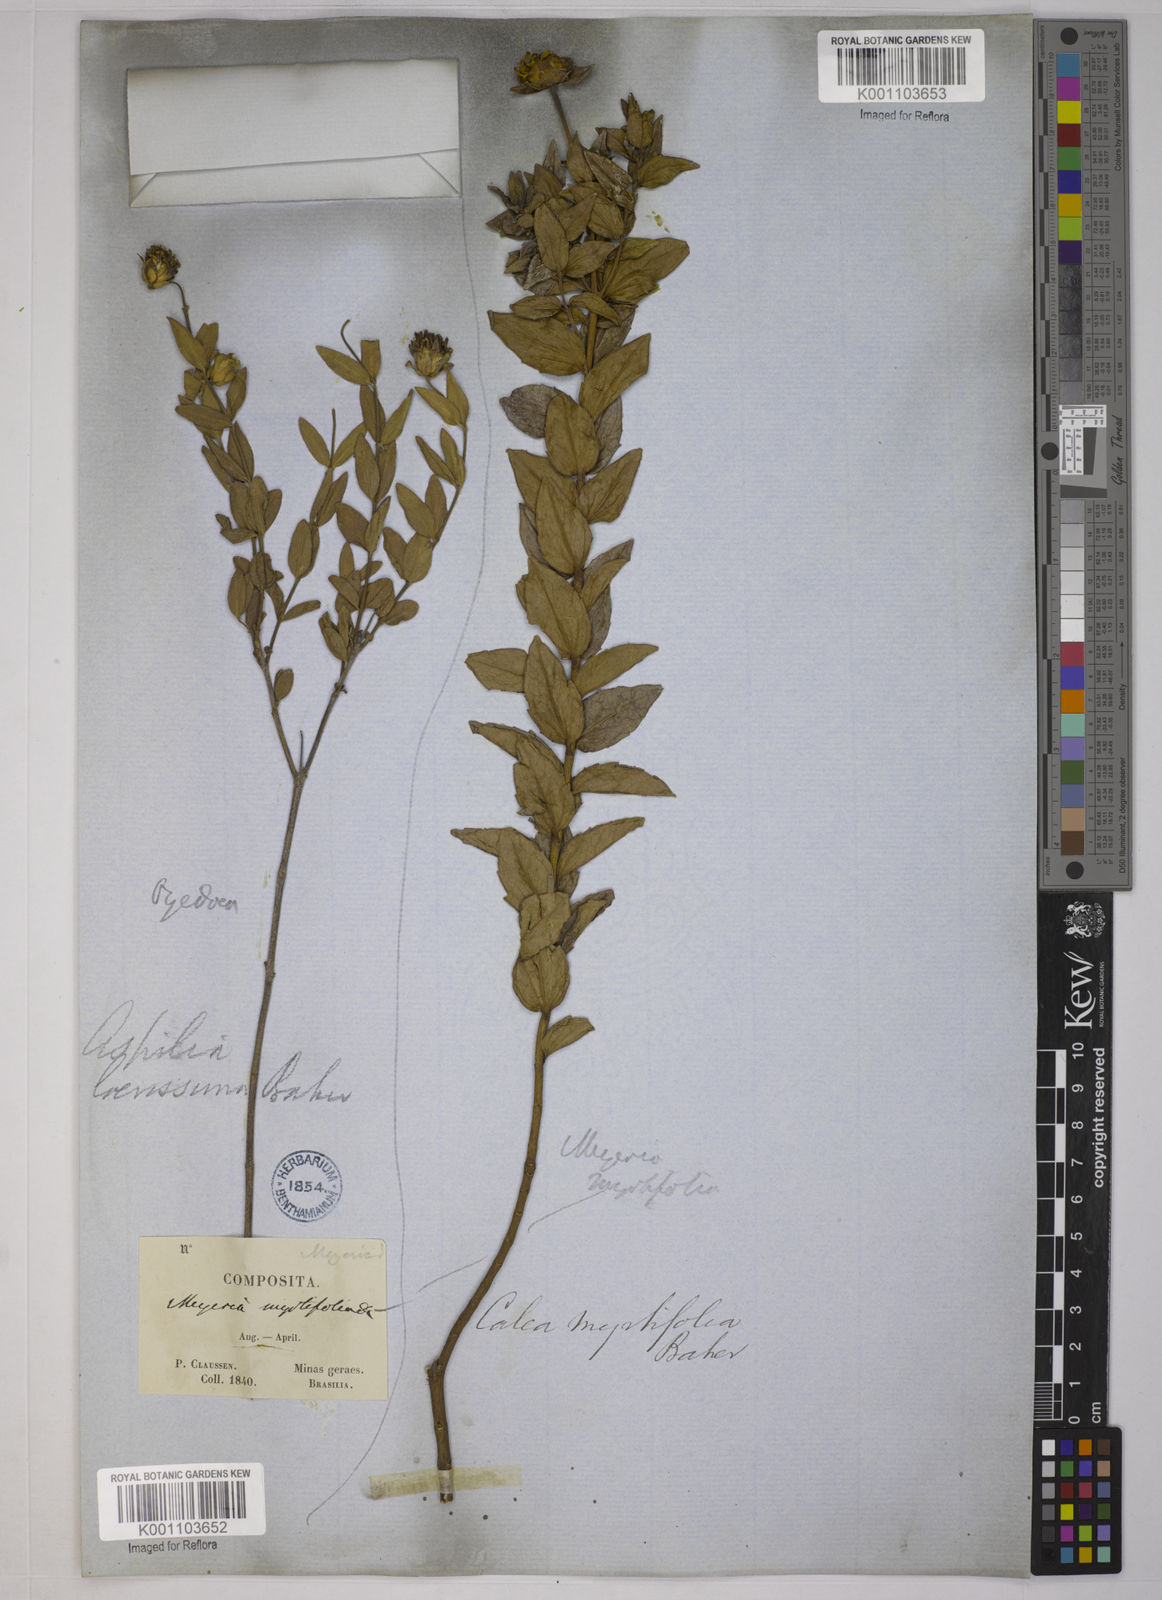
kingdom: Plantae
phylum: Tracheophyta
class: Magnoliopsida
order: Asterales
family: Asteraceae
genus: Calea
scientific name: Calea myrtifolia
